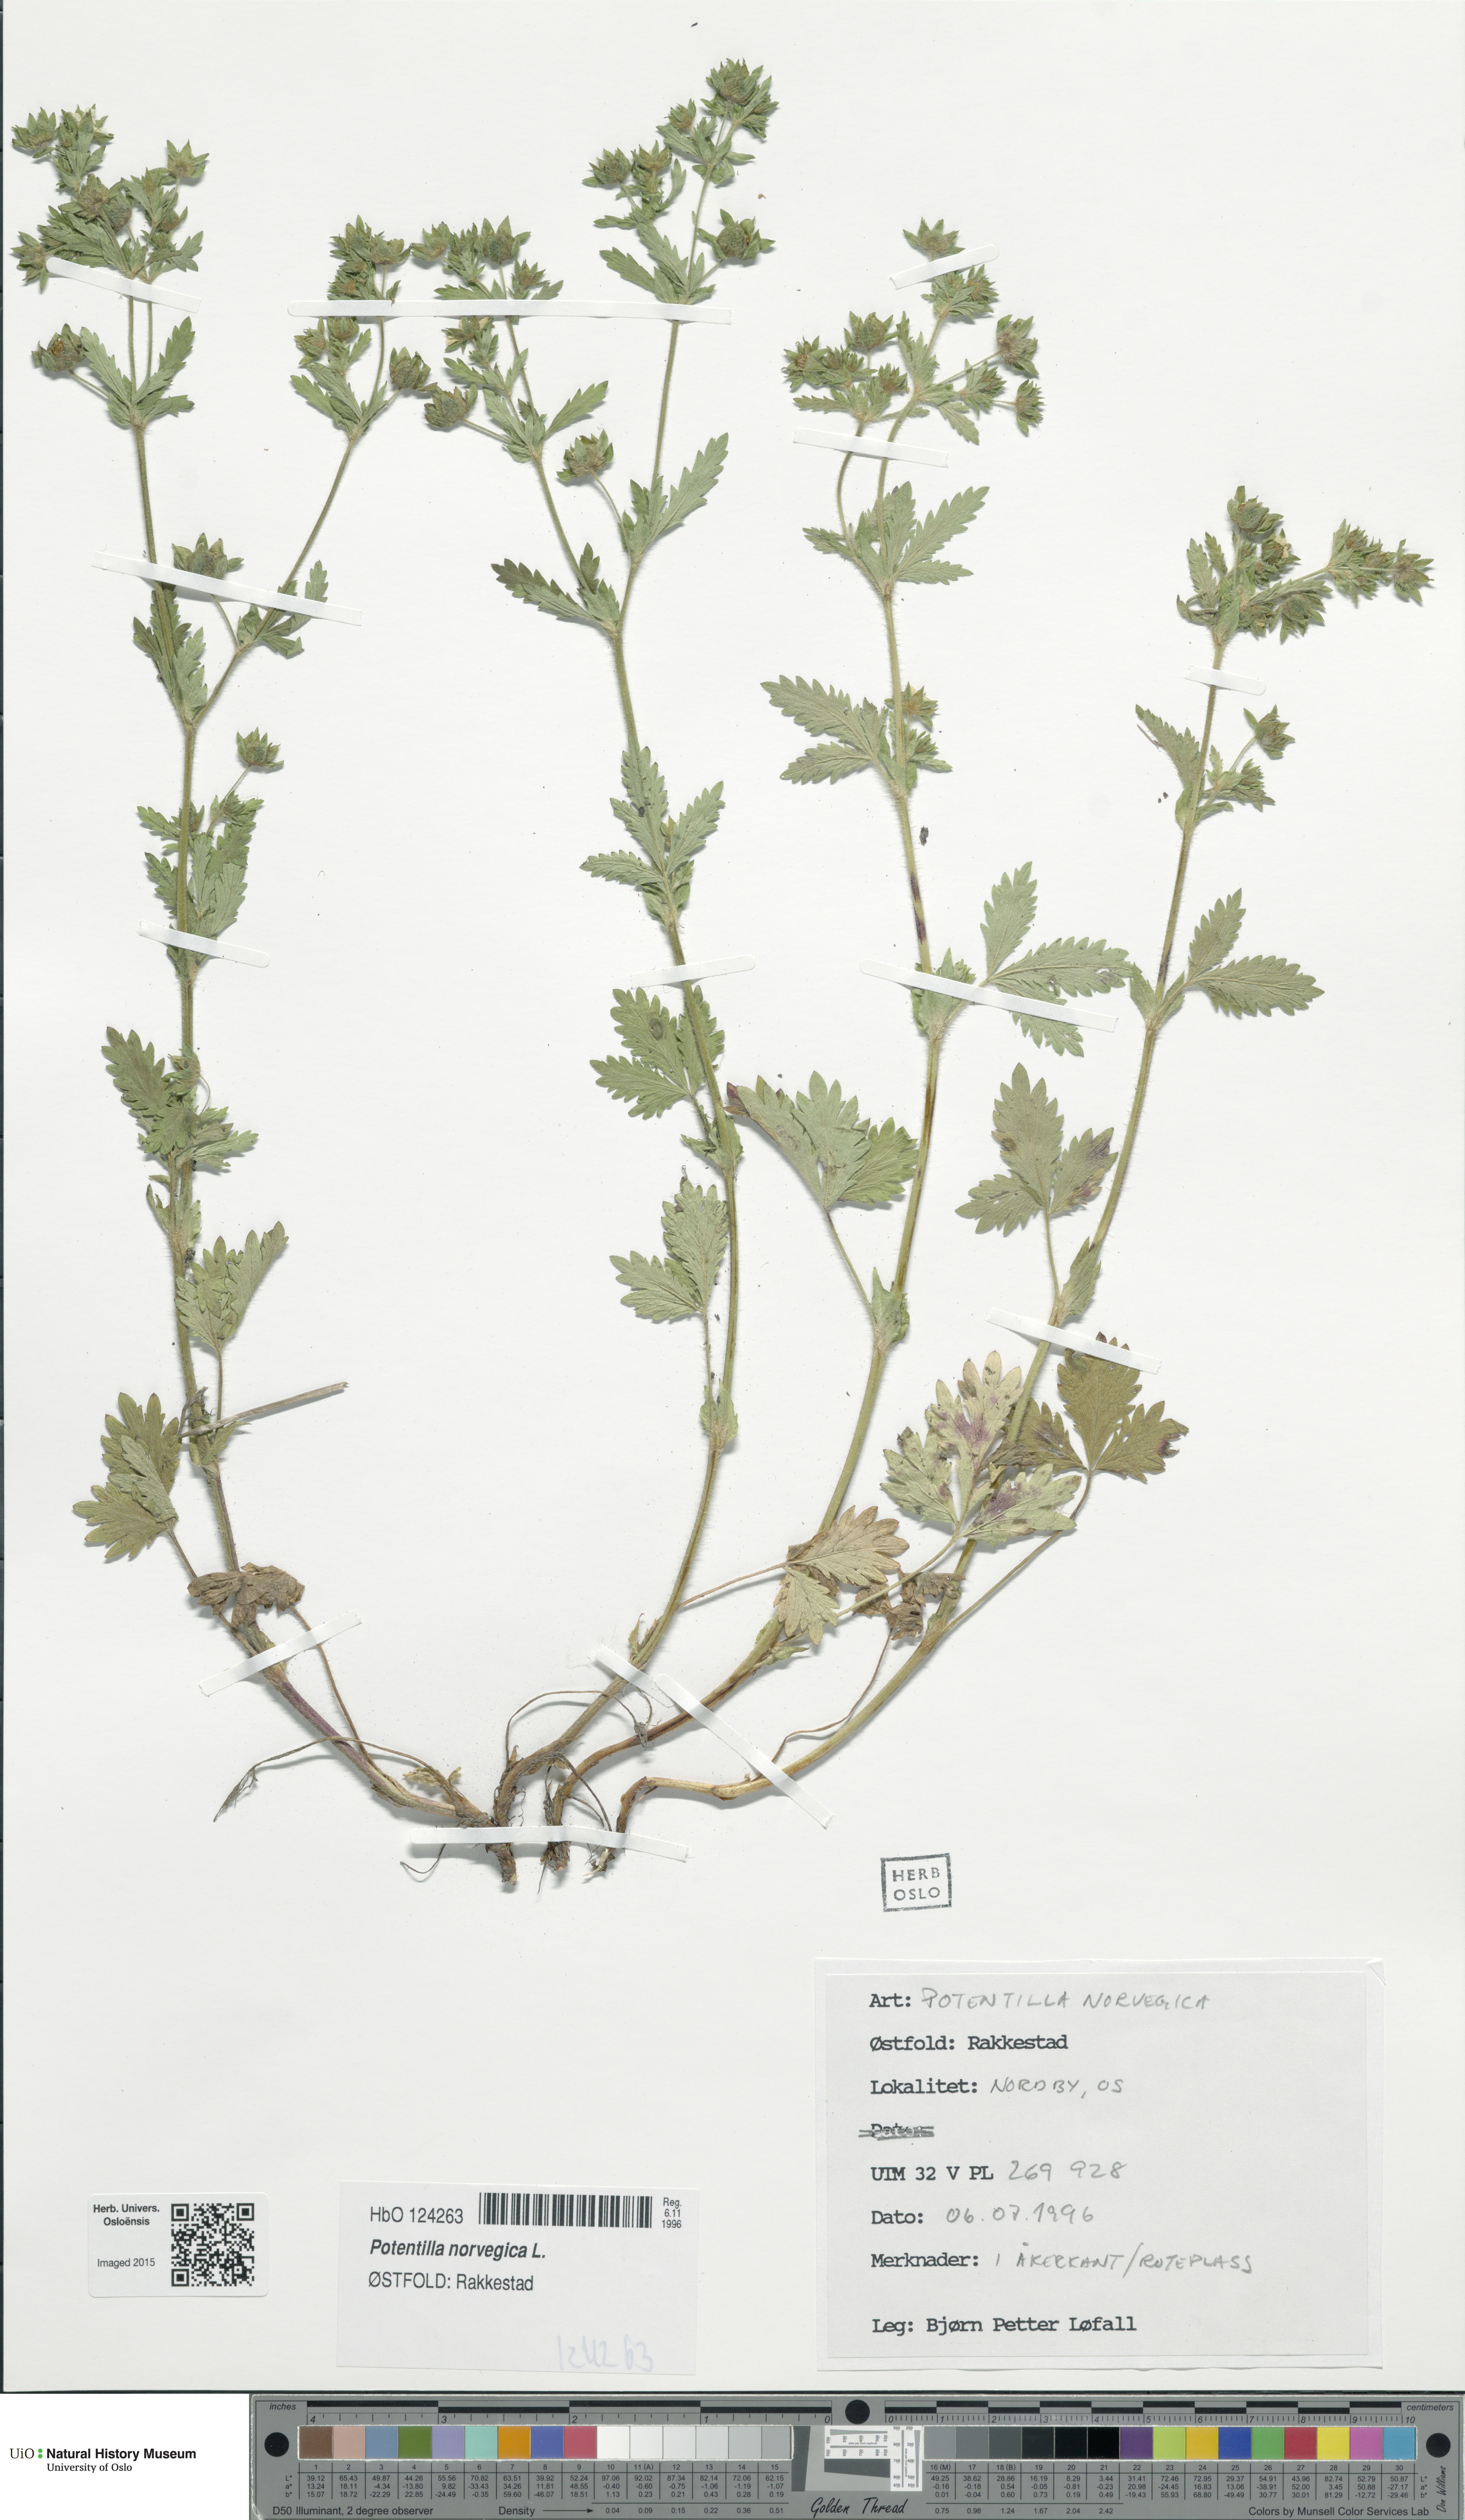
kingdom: Plantae
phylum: Tracheophyta
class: Magnoliopsida
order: Rosales
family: Rosaceae
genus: Potentilla
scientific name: Potentilla norvegica
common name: Ternate-leaved cinquefoil
